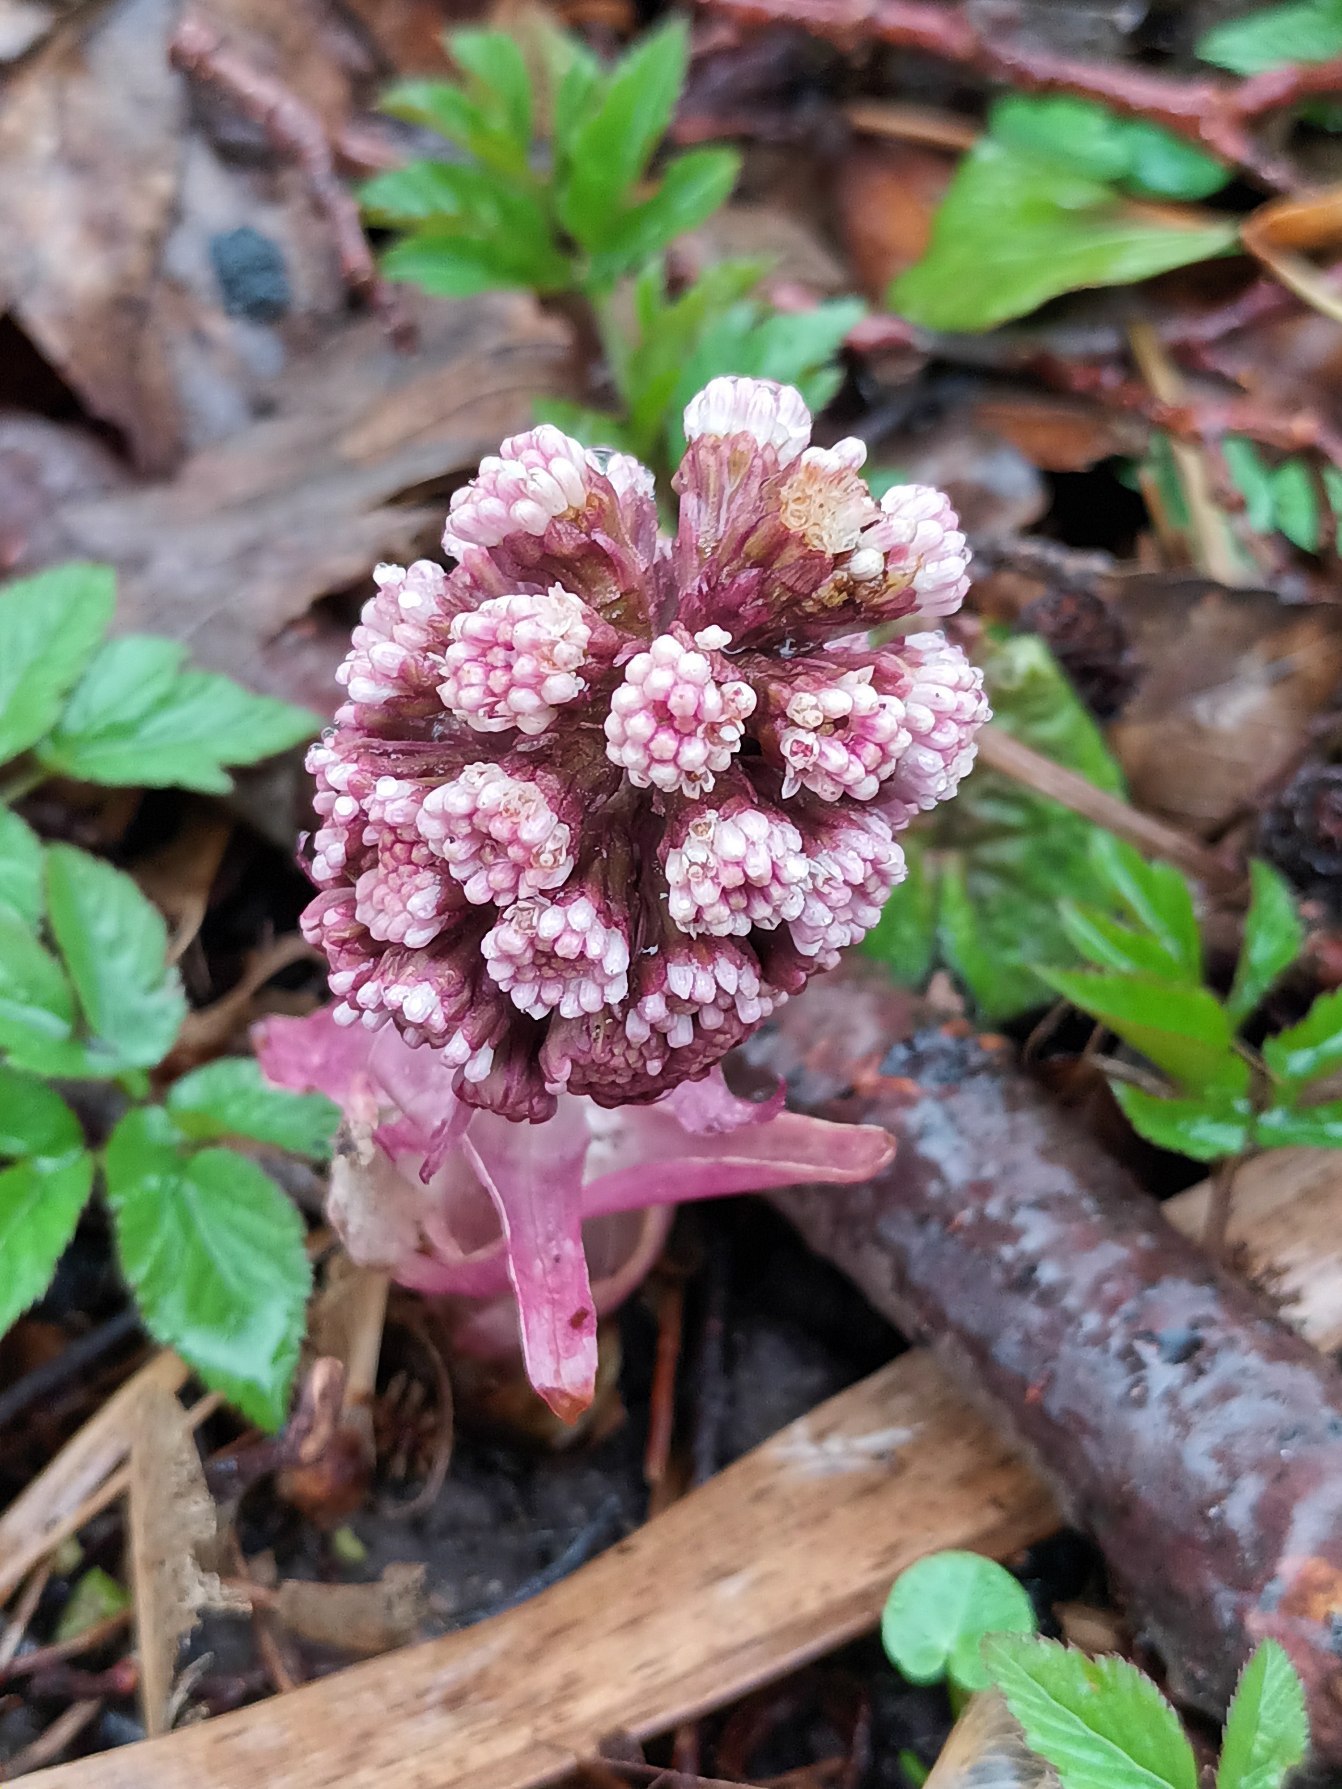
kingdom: Plantae
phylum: Tracheophyta
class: Magnoliopsida
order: Asterales
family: Asteraceae
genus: Petasites
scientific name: Petasites hybridus
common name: Rød hestehov
